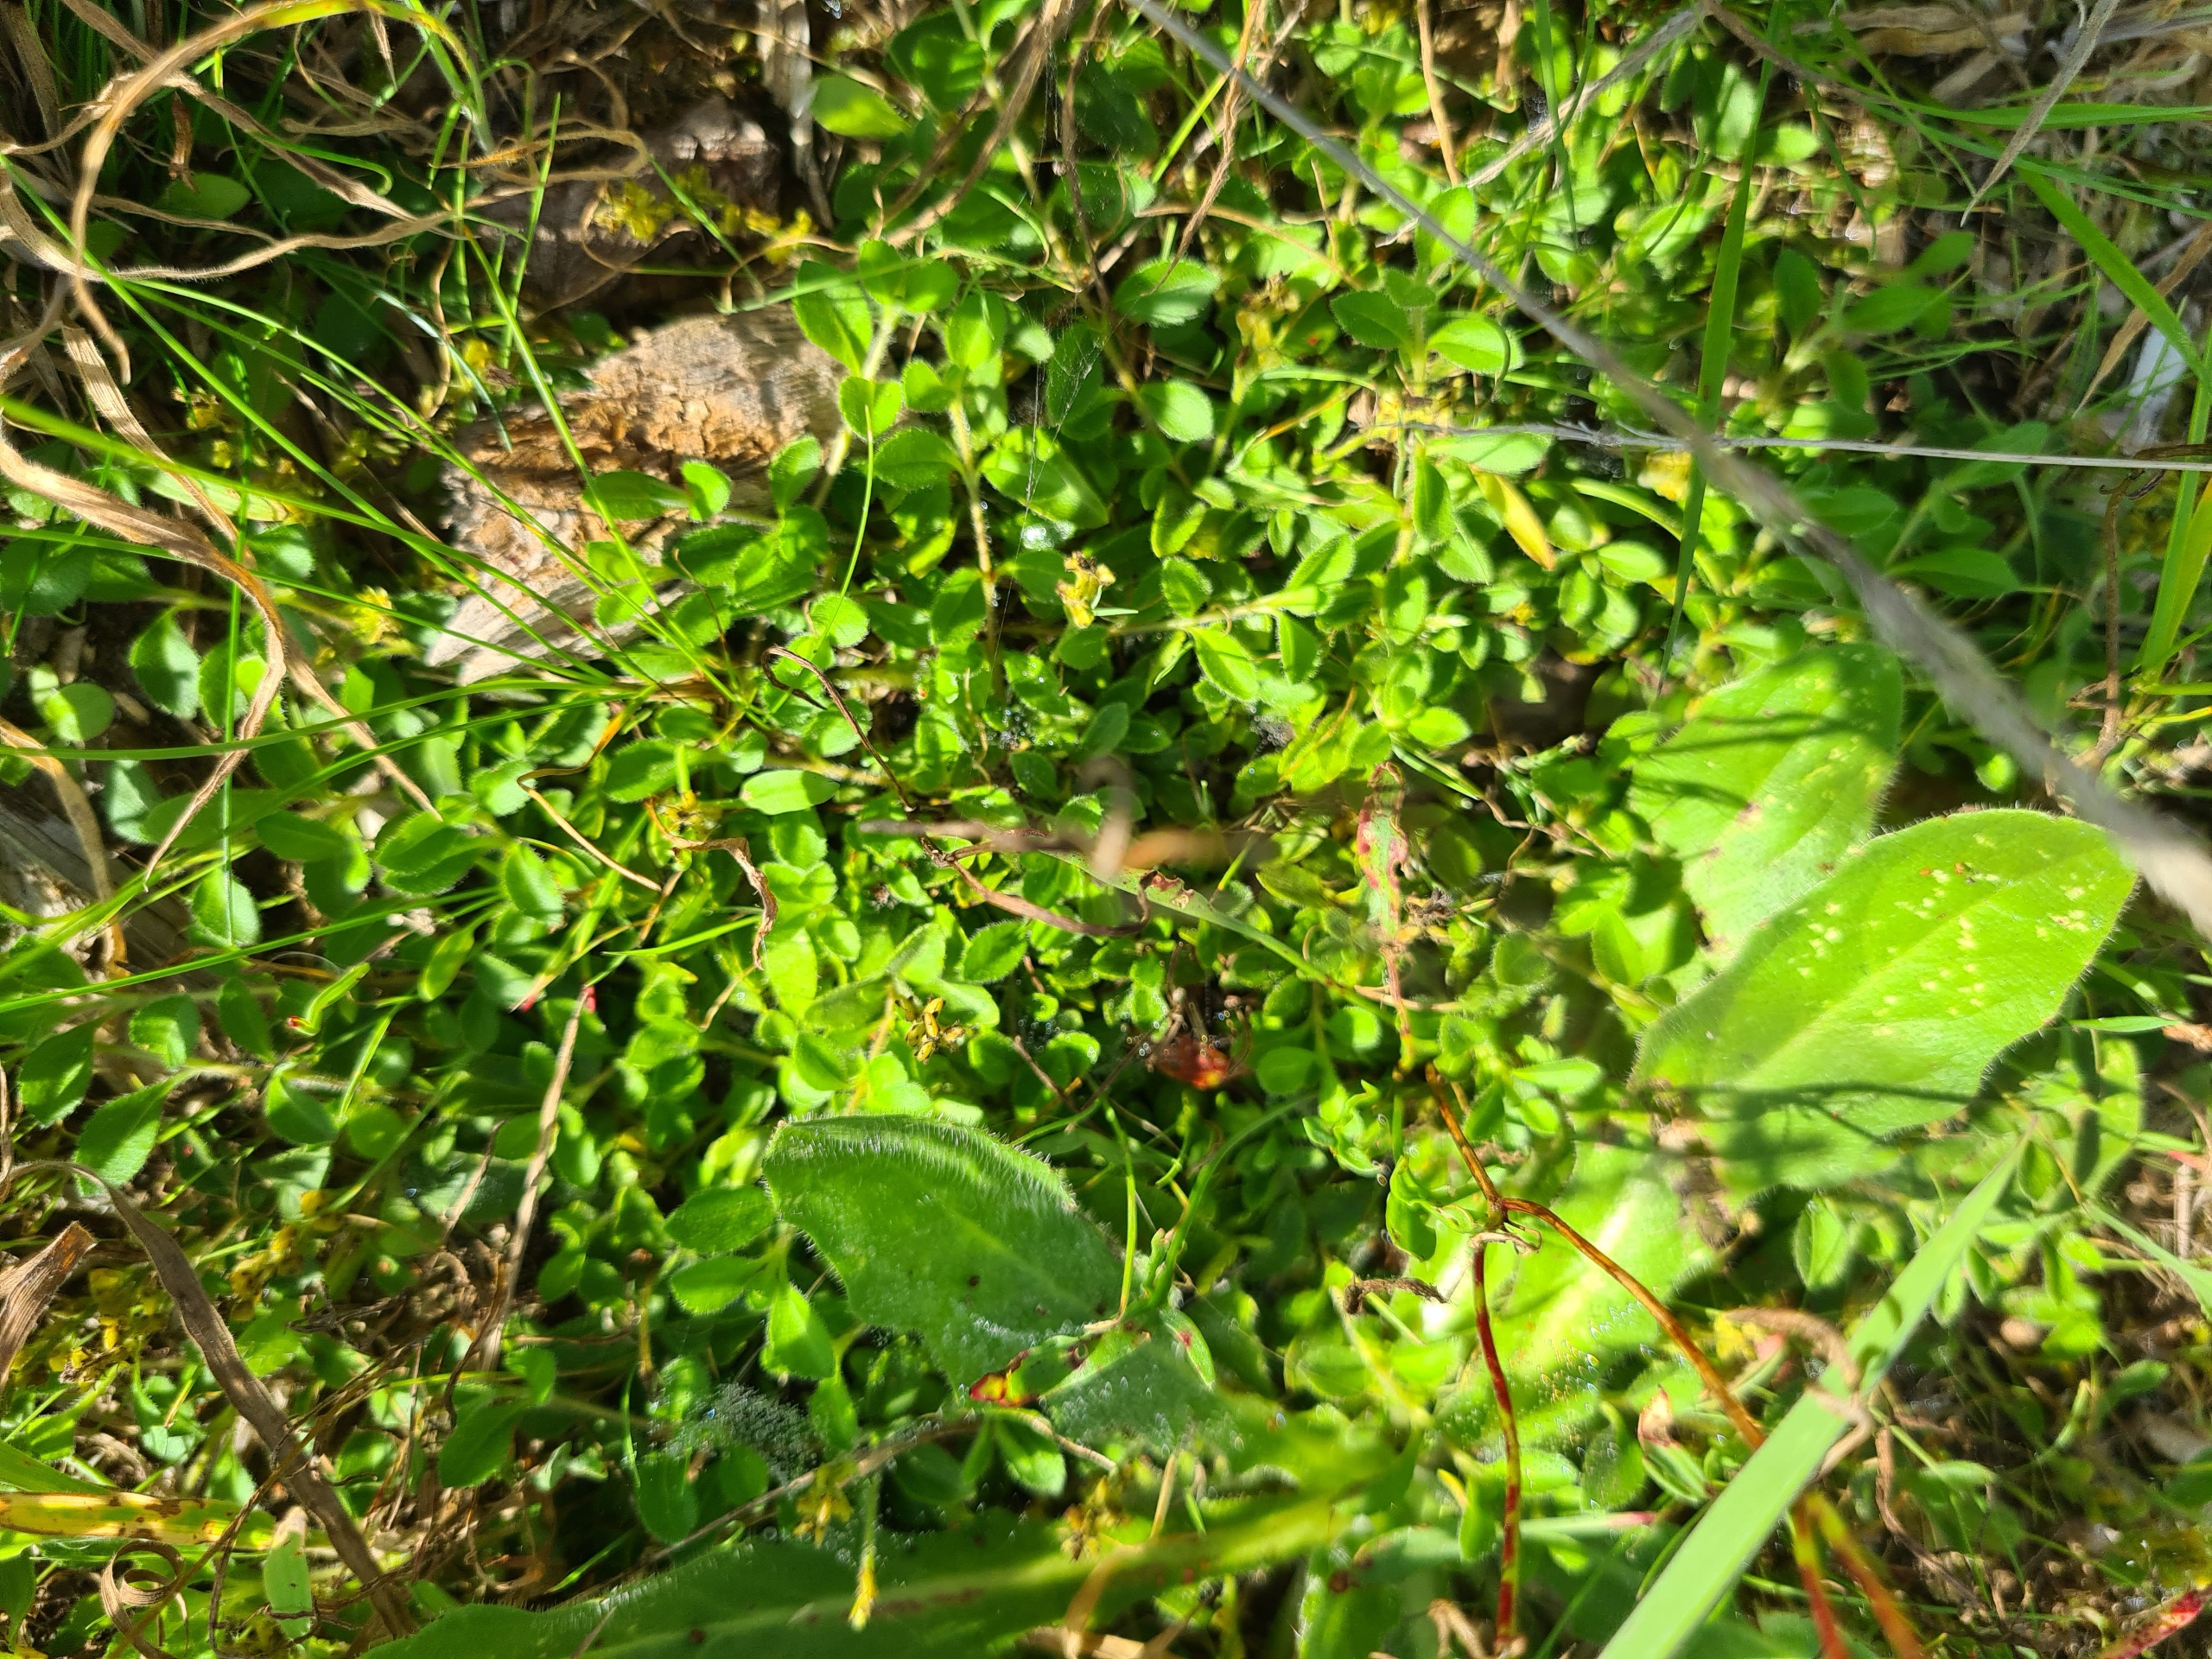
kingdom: Plantae
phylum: Tracheophyta
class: Magnoliopsida
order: Lamiales
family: Plantaginaceae
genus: Veronica
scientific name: Veronica officinalis
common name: Læge-ærenpris
